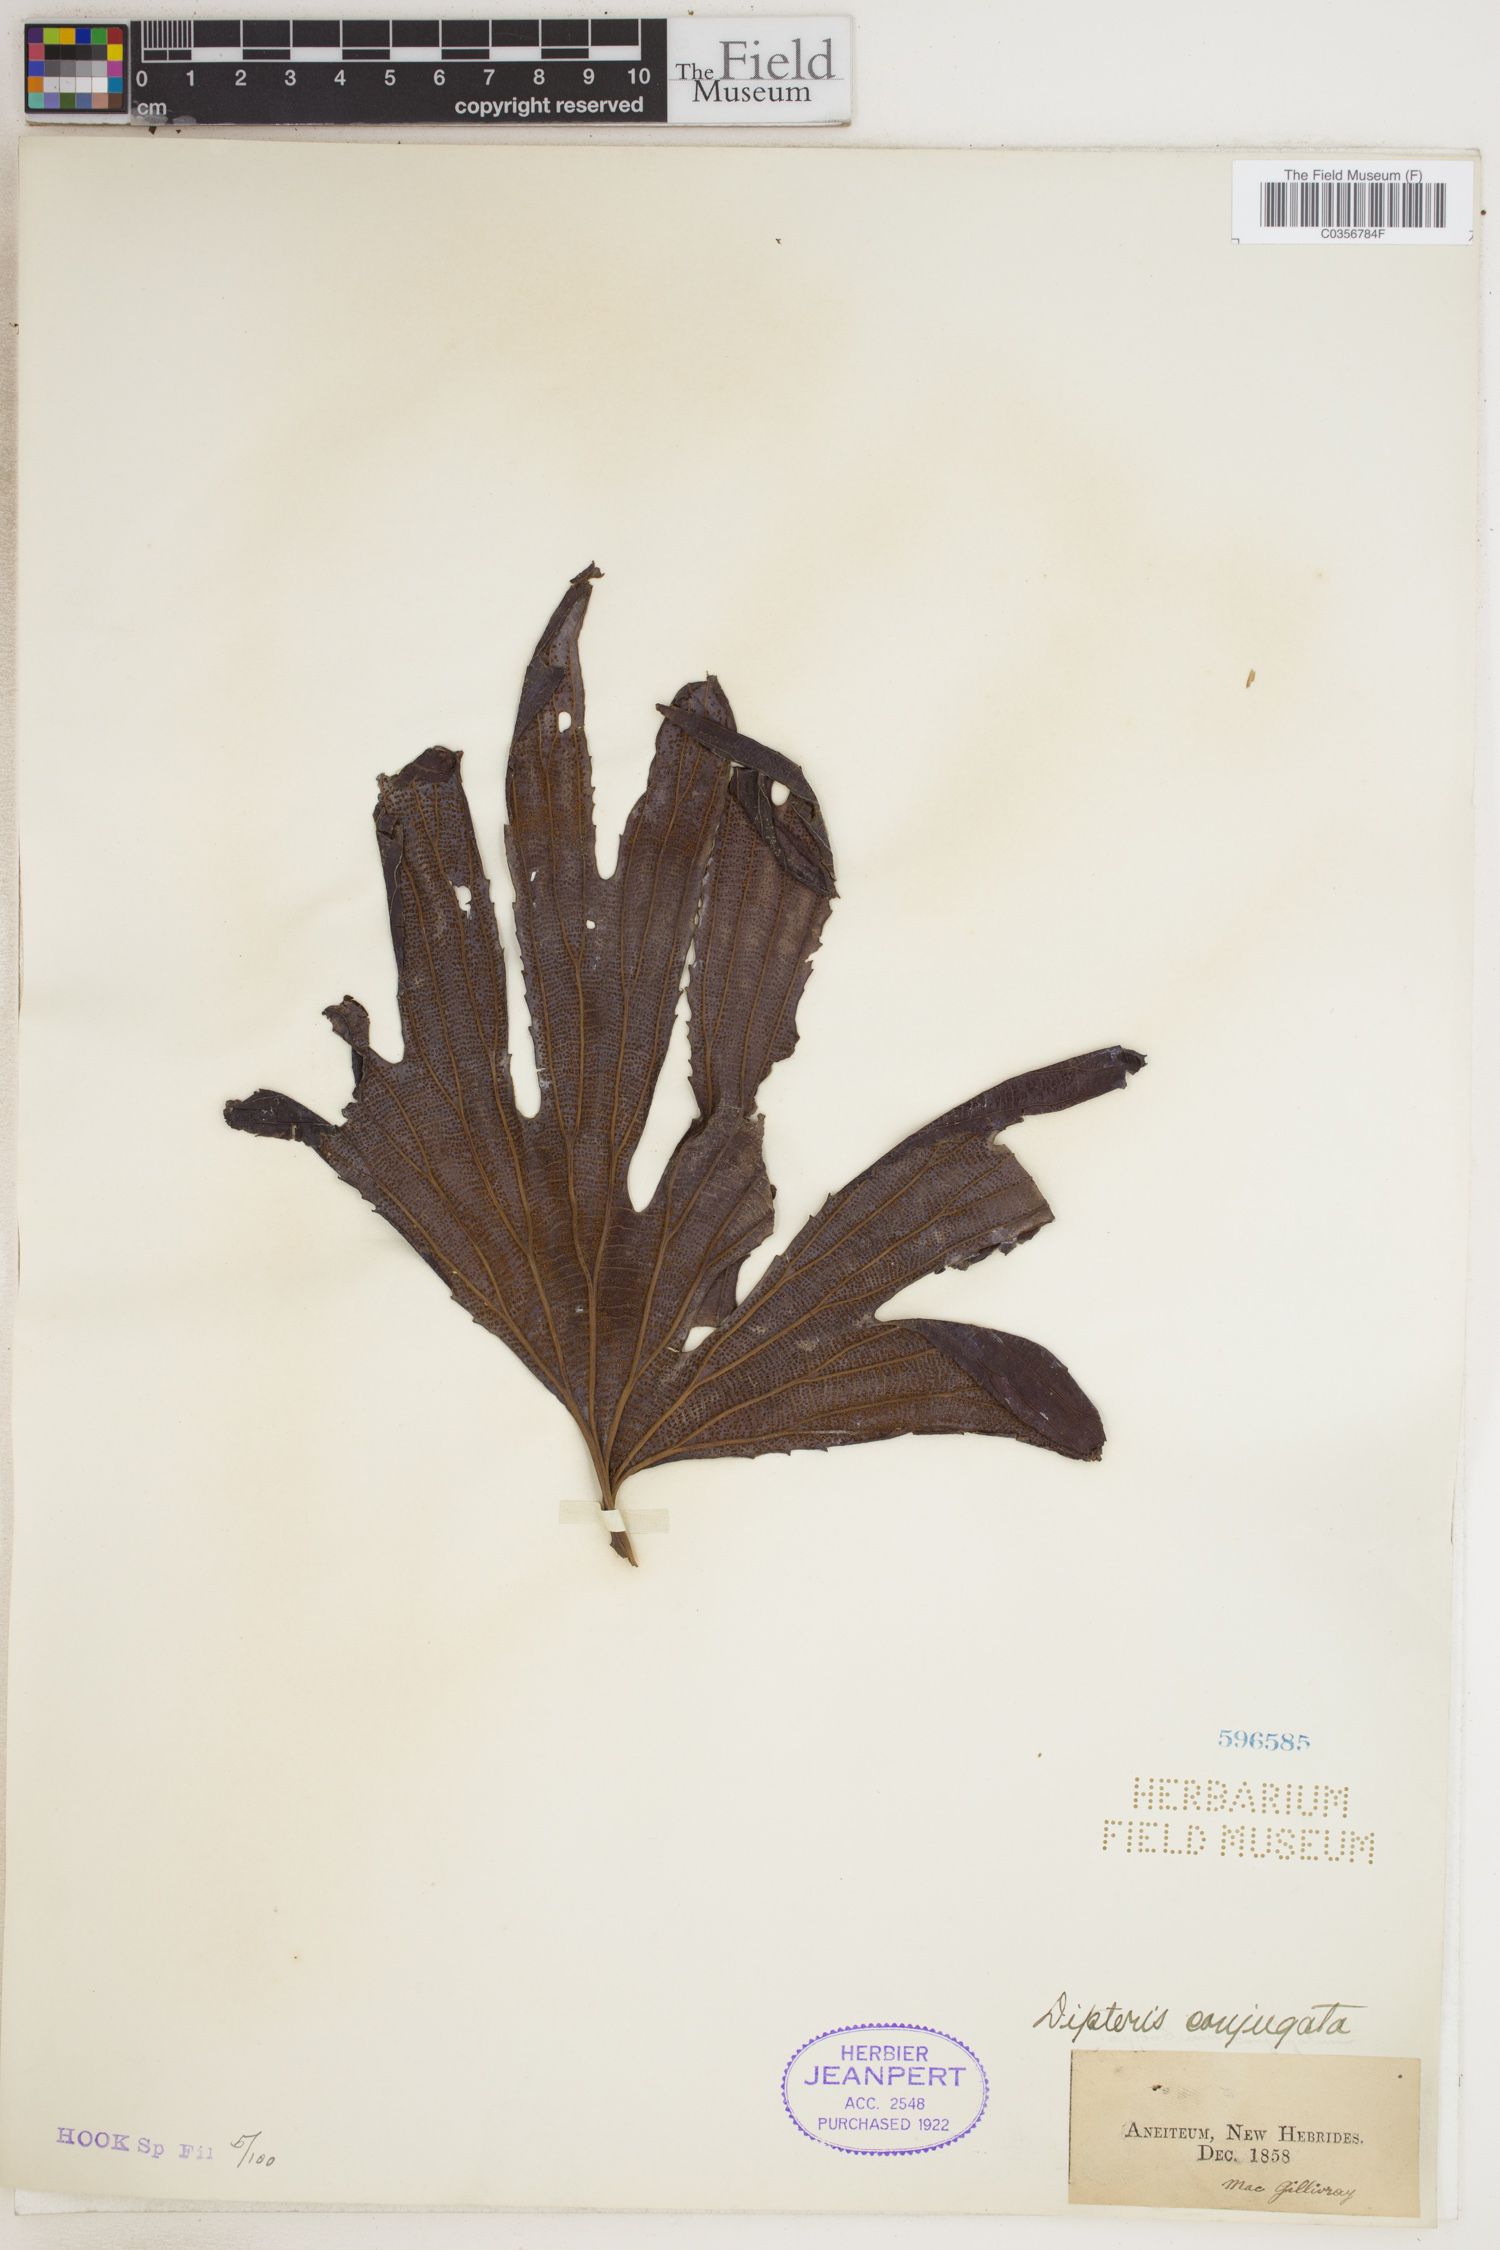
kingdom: Plantae
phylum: Tracheophyta
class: Polypodiopsida
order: Gleicheniales
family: Dipteridaceae
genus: Dipteris
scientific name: Dipteris conjugata
